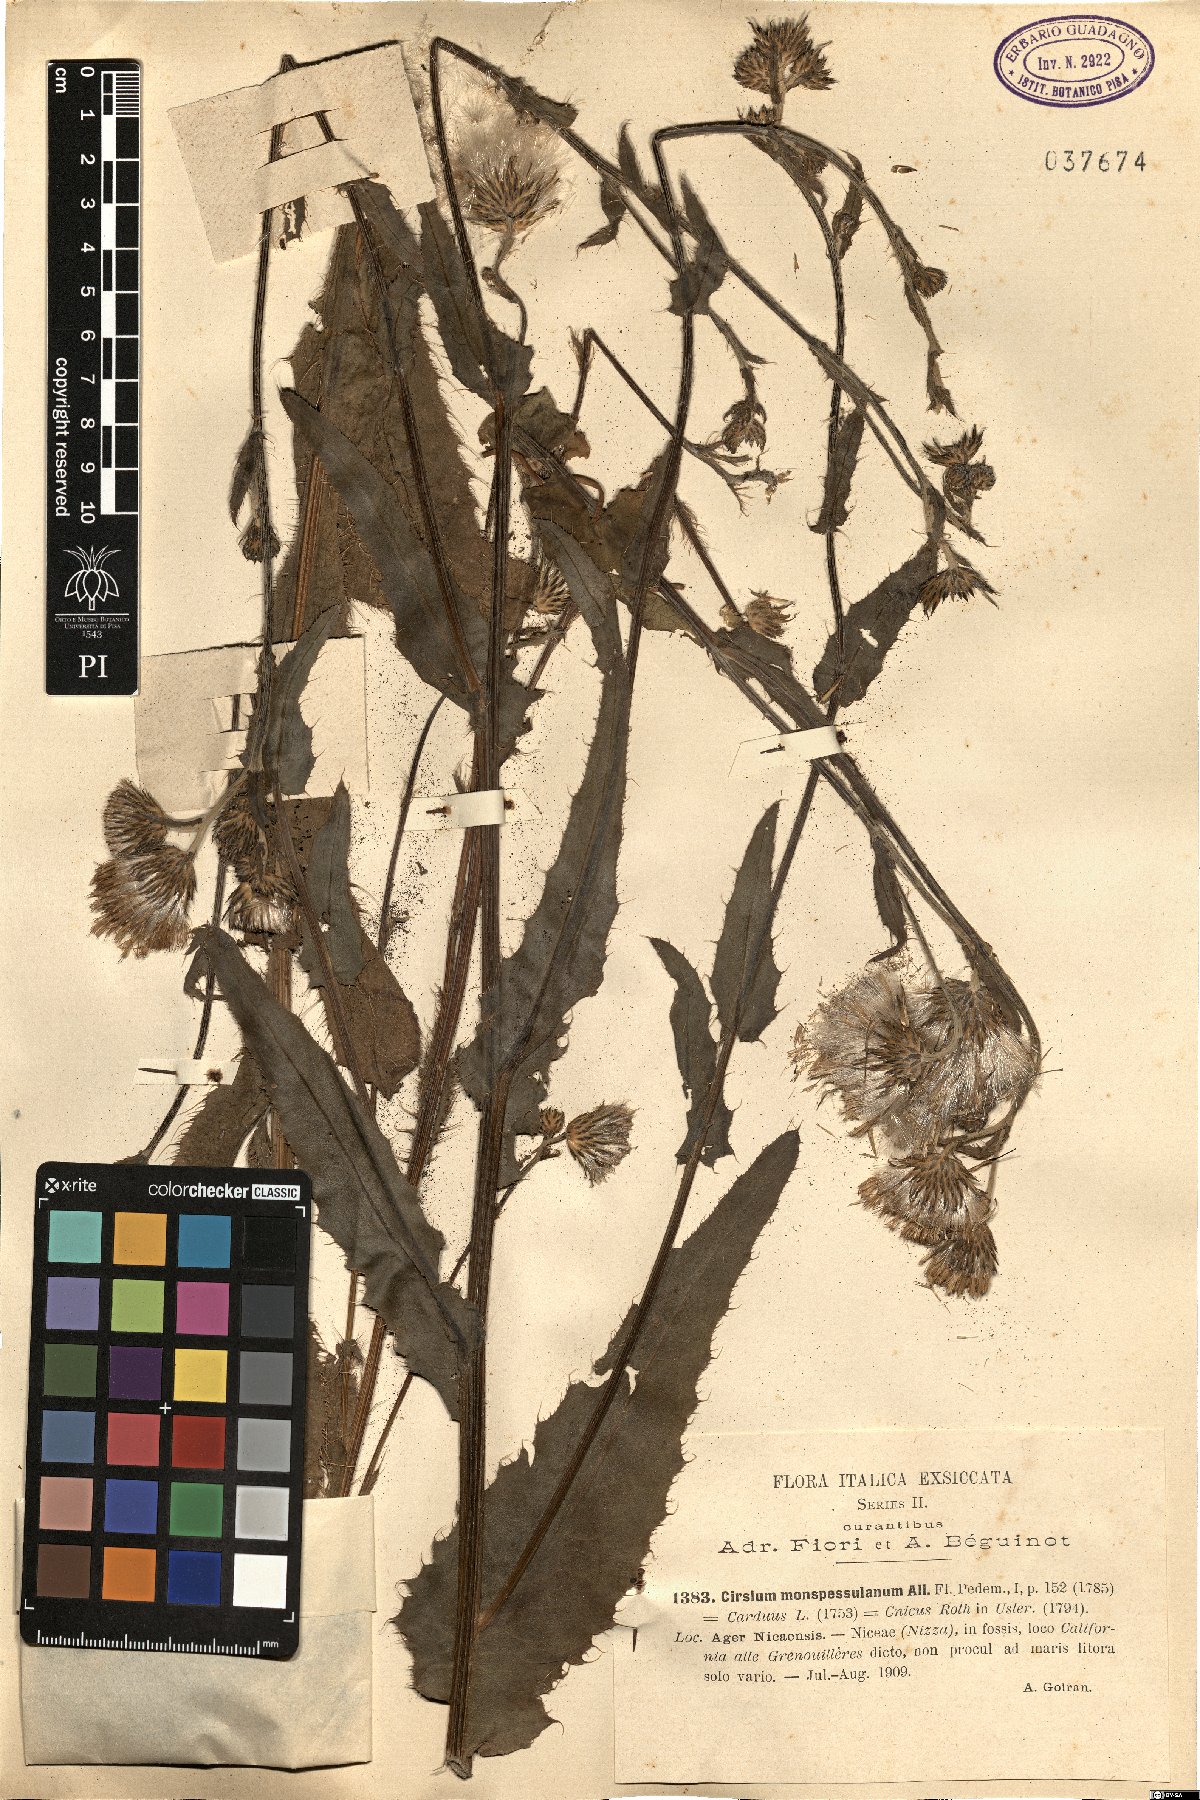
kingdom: Plantae
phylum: Tracheophyta
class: Magnoliopsida
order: Asterales
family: Asteraceae
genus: Cirsium
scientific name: Cirsium monspessulanum
